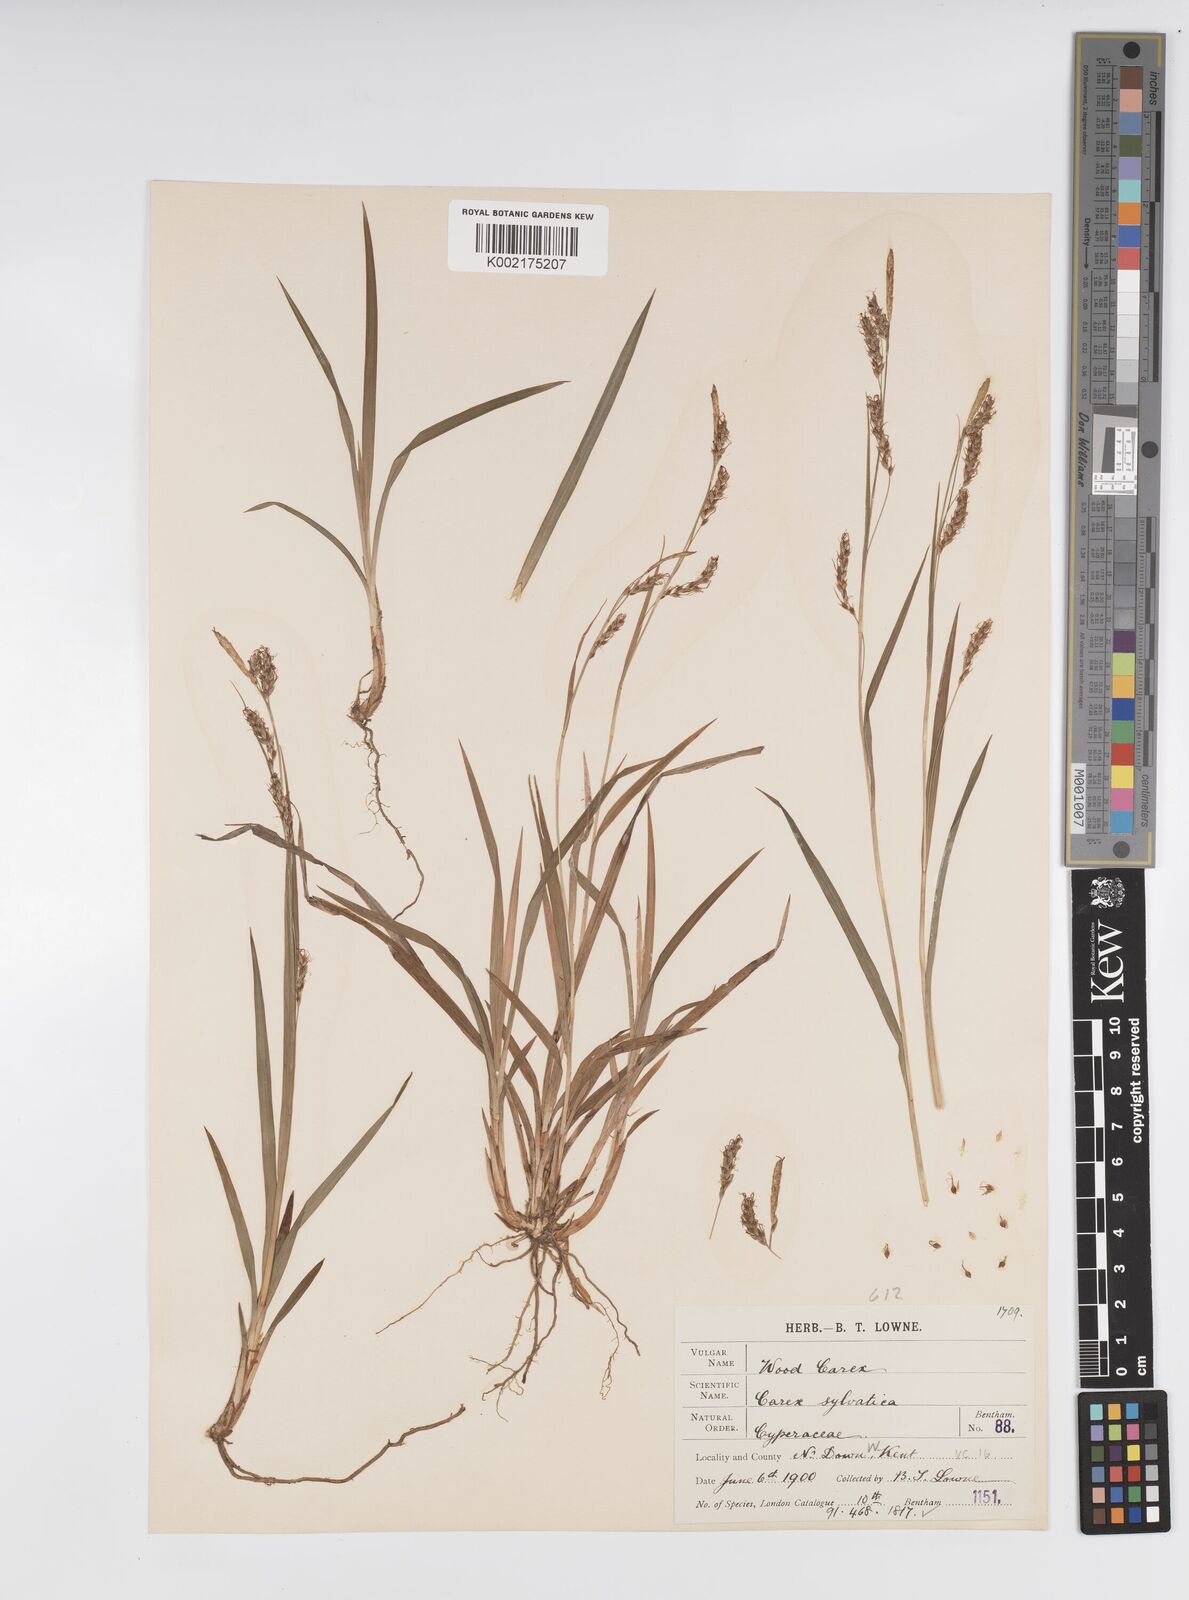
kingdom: Plantae
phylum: Tracheophyta
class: Liliopsida
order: Poales
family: Cyperaceae
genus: Carex
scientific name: Carex sylvatica
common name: Wood-sedge
